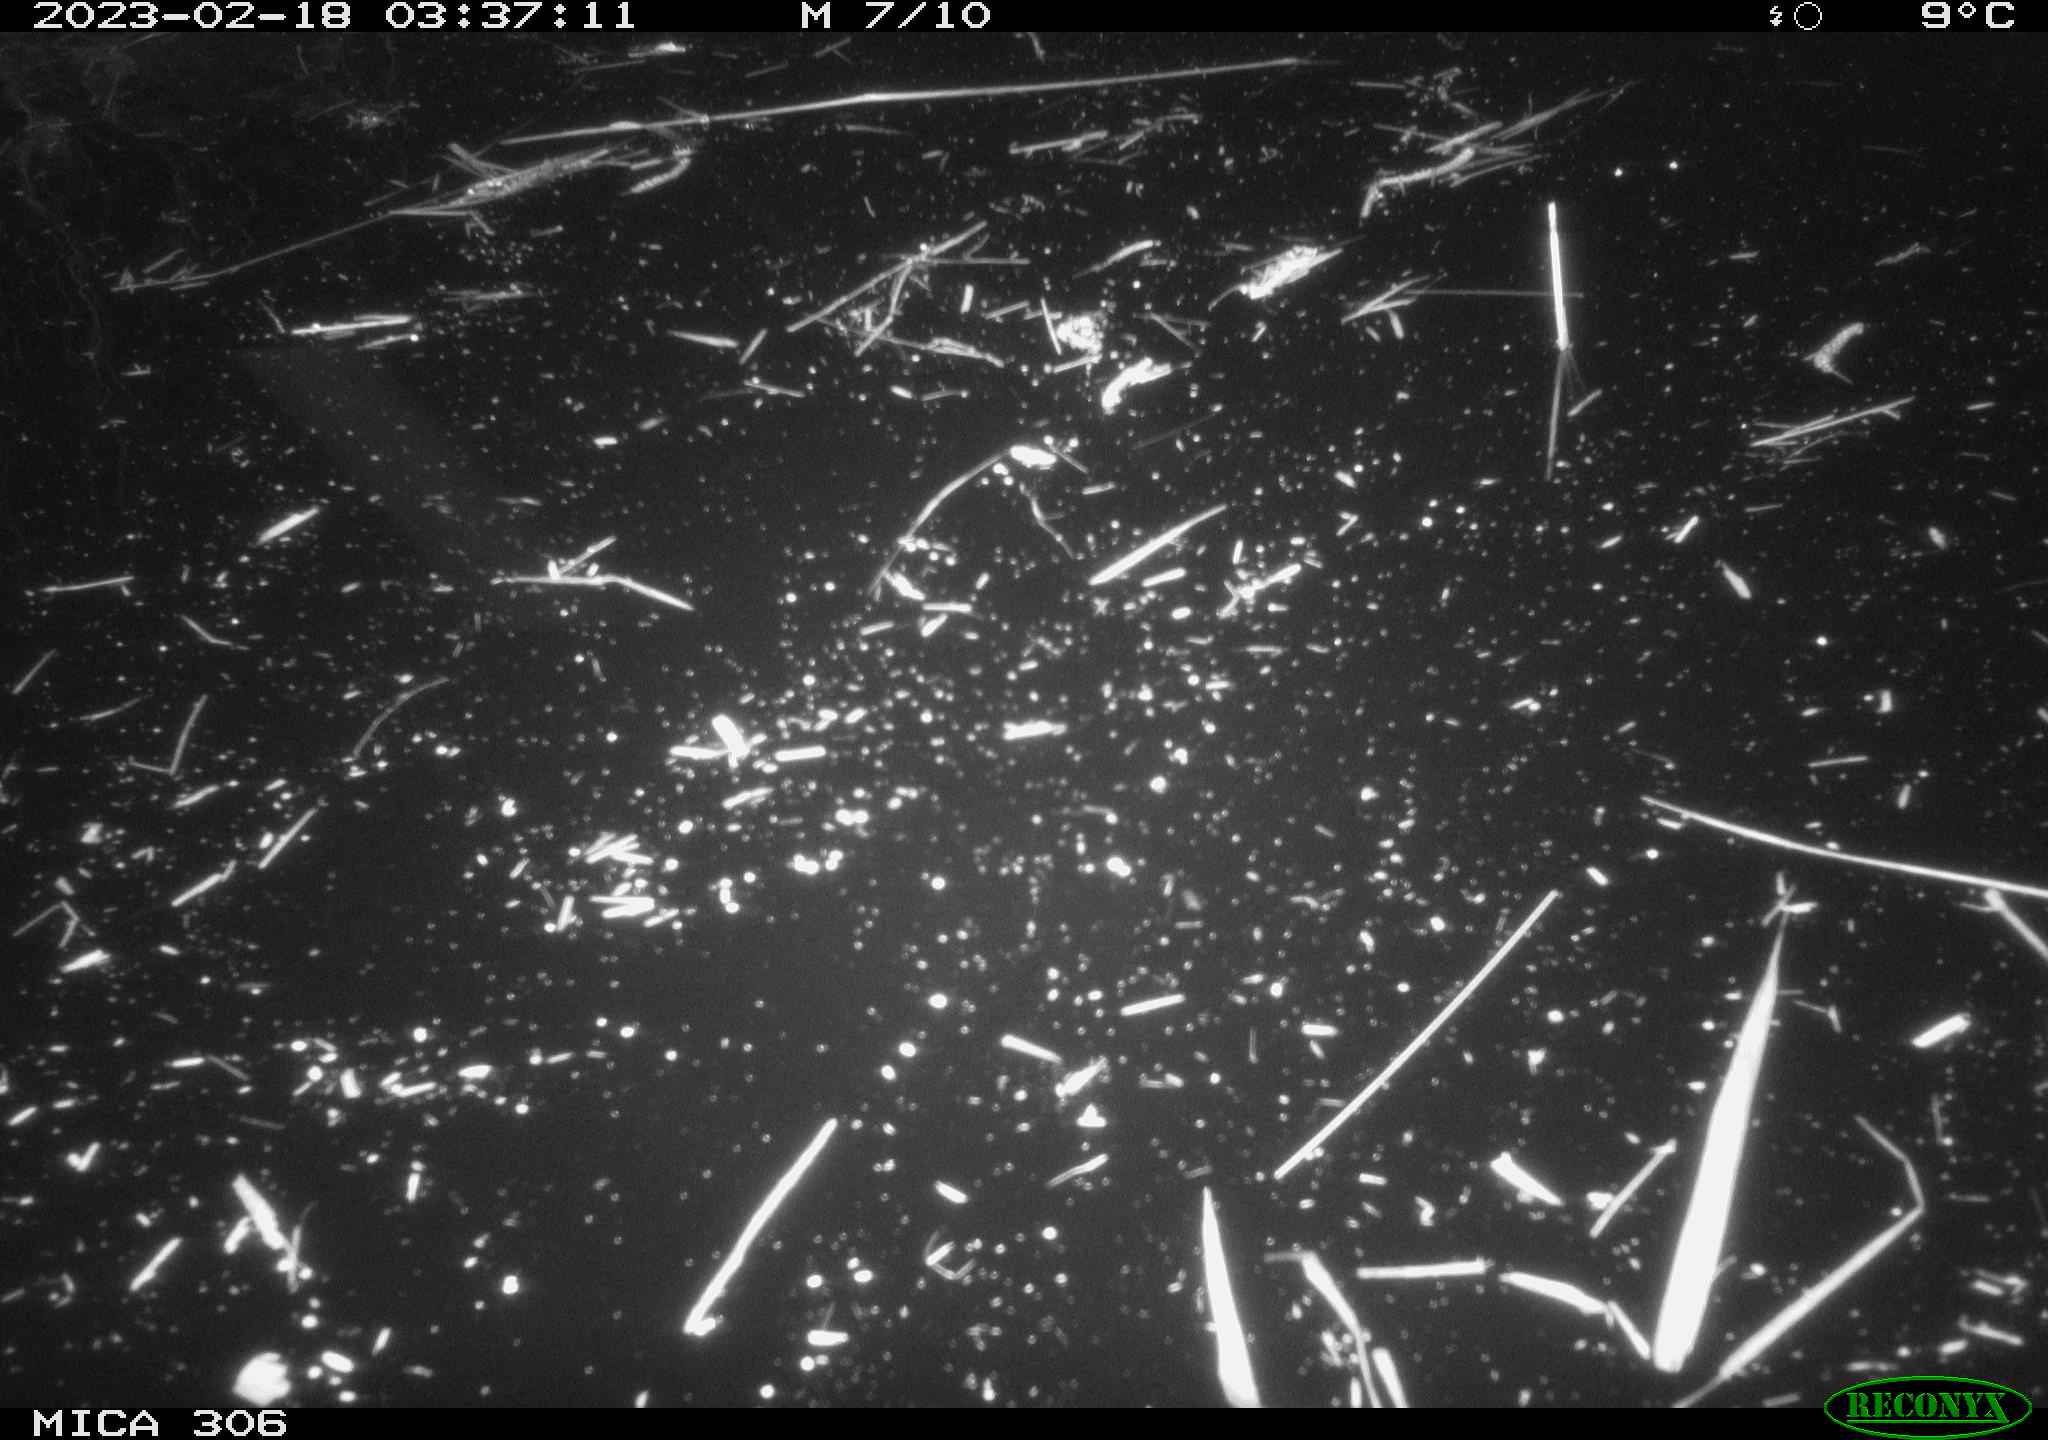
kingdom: Animalia
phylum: Chordata
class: Mammalia
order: Rodentia
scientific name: Rodentia
